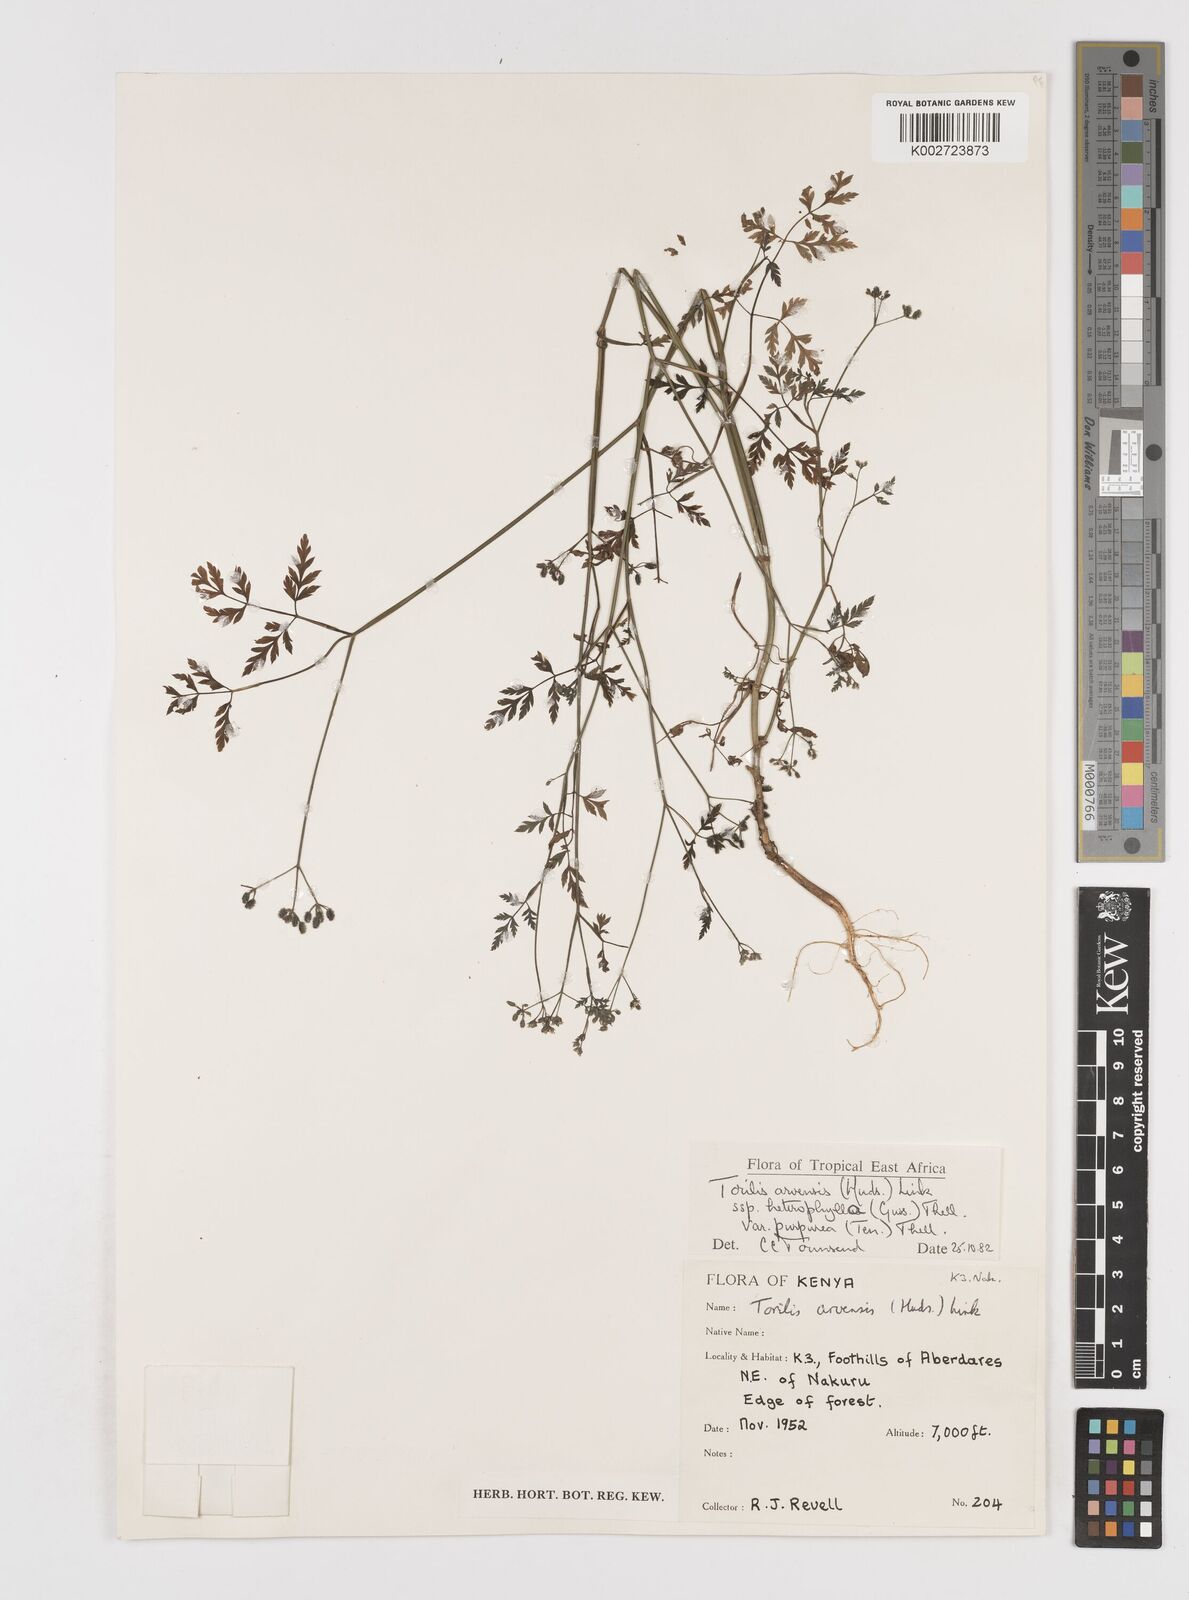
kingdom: Plantae
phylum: Tracheophyta
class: Magnoliopsida
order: Apiales
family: Apiaceae
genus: Torilis
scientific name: Torilis arvensis
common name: Spreading hedge-parsley
